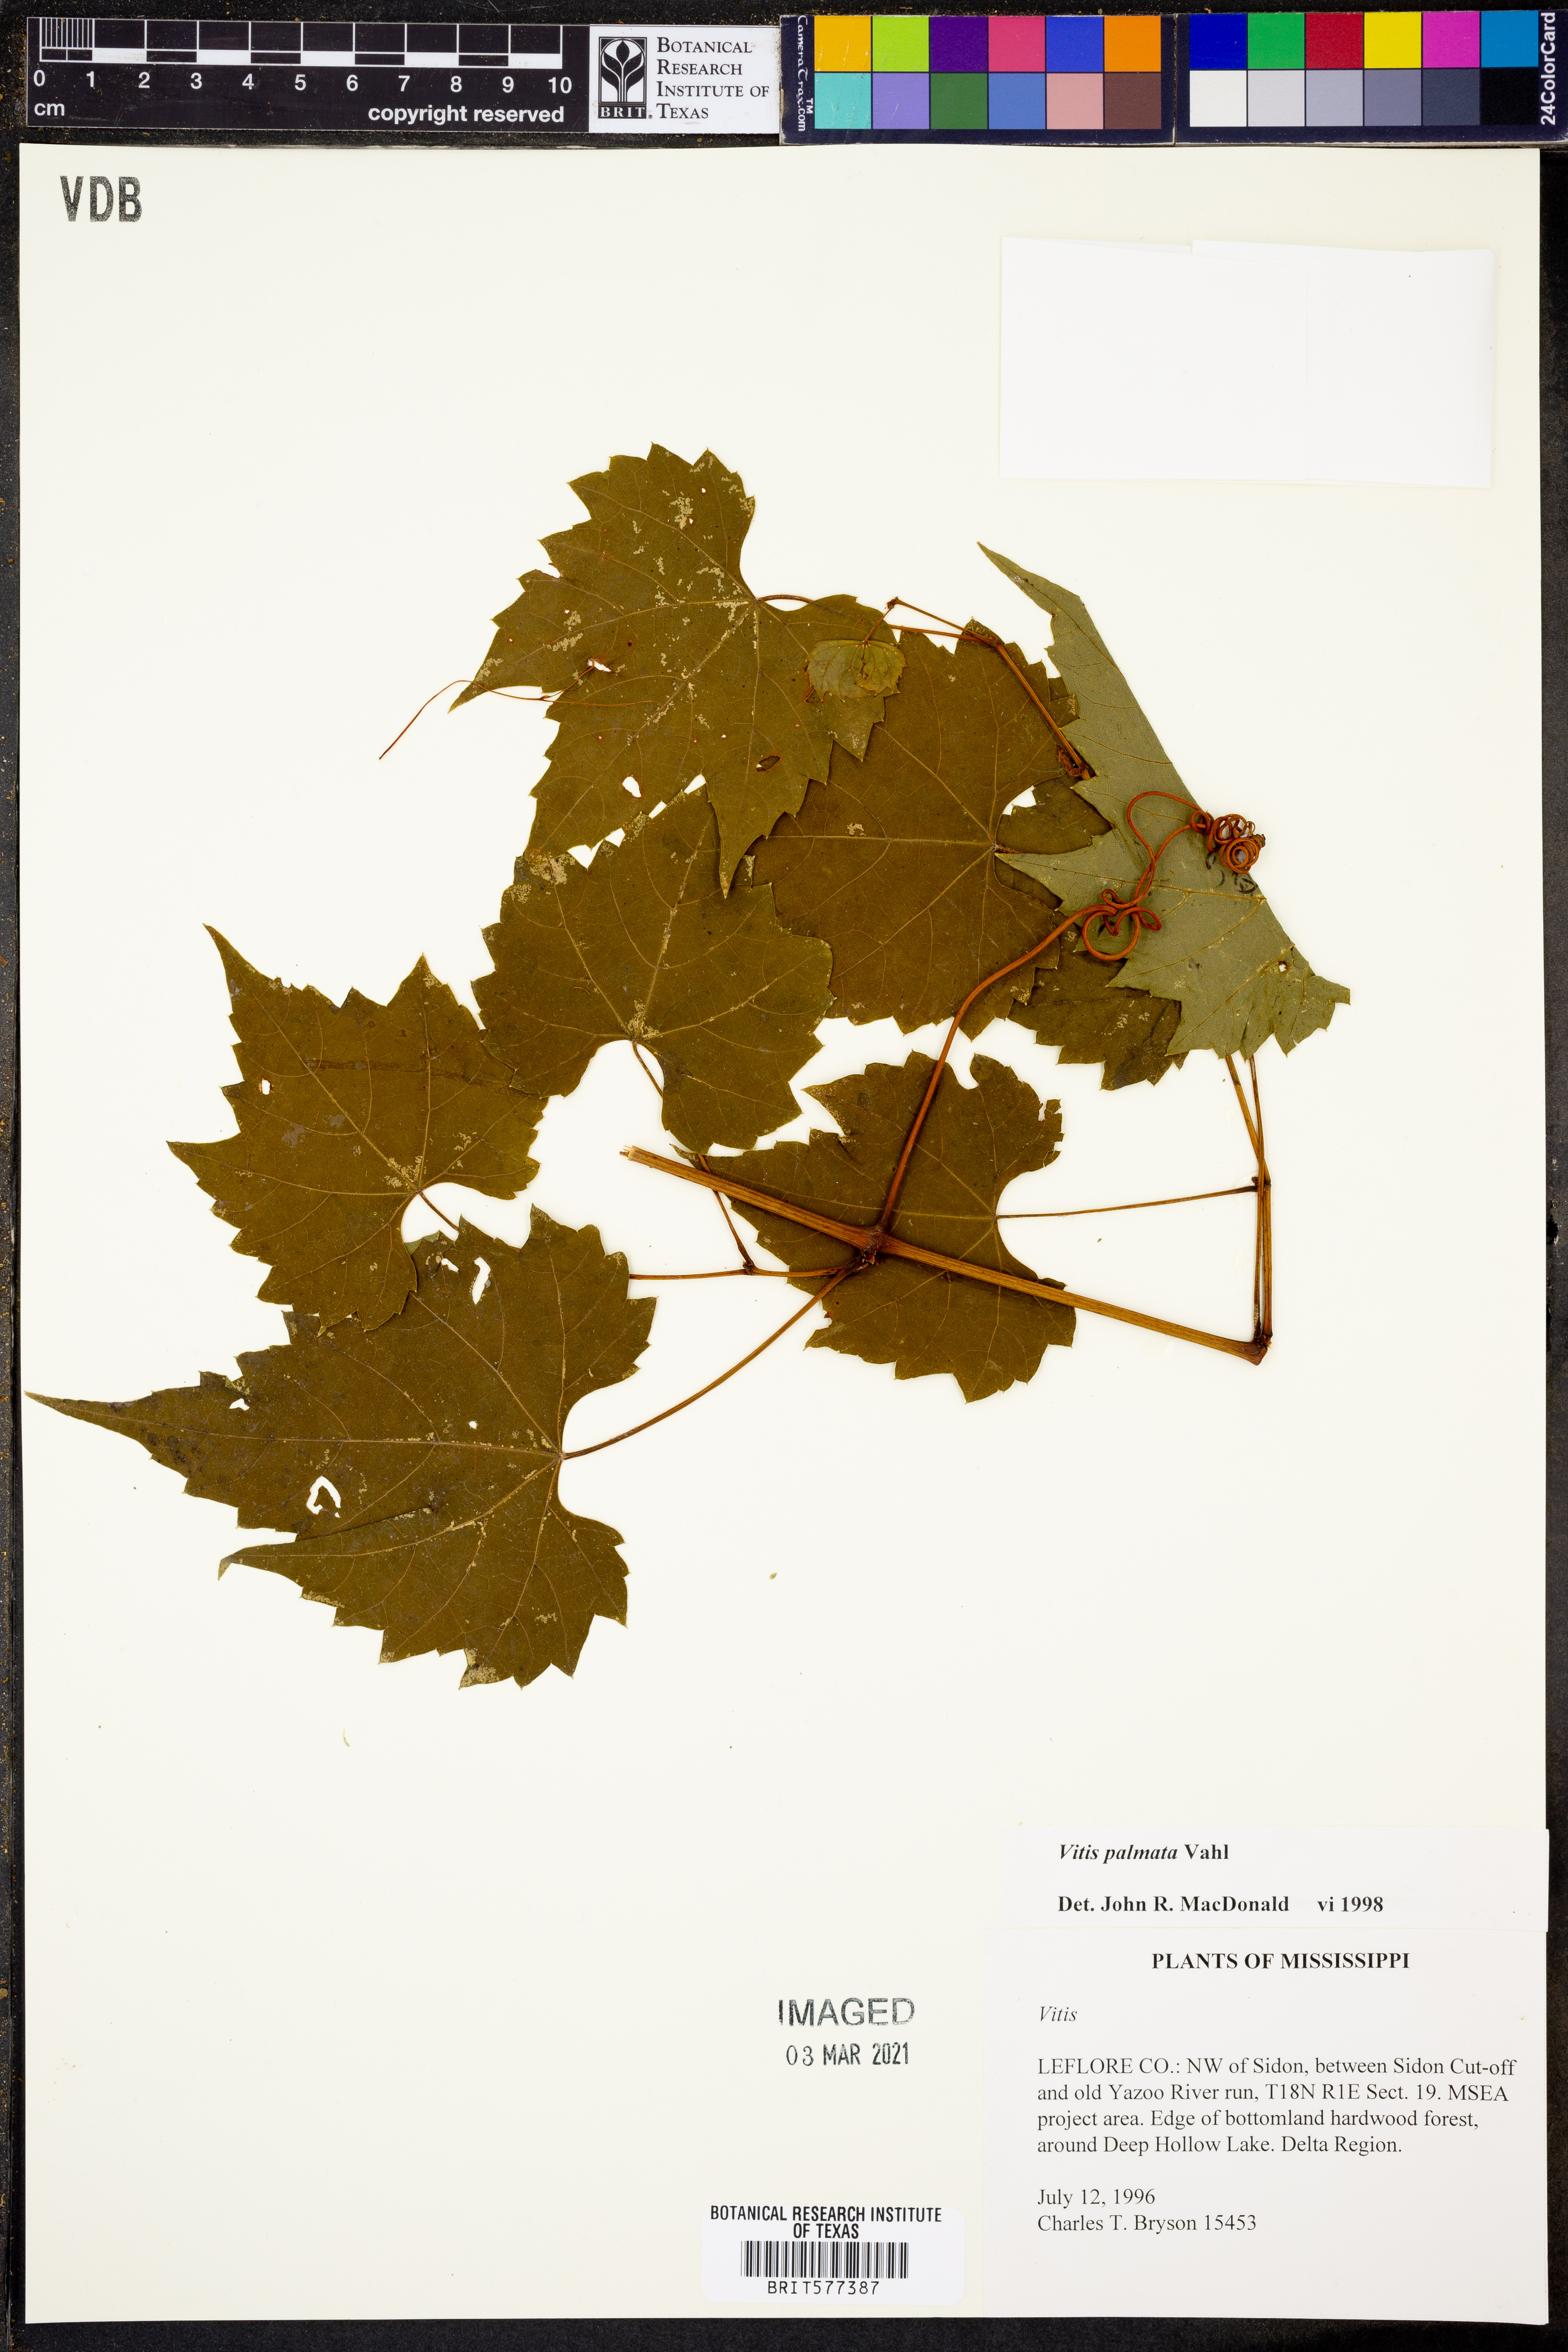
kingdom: Plantae
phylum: Tracheophyta
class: Magnoliopsida
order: Vitales
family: Vitaceae
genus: Vitis
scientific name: Vitis palmata
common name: Catbird grape
